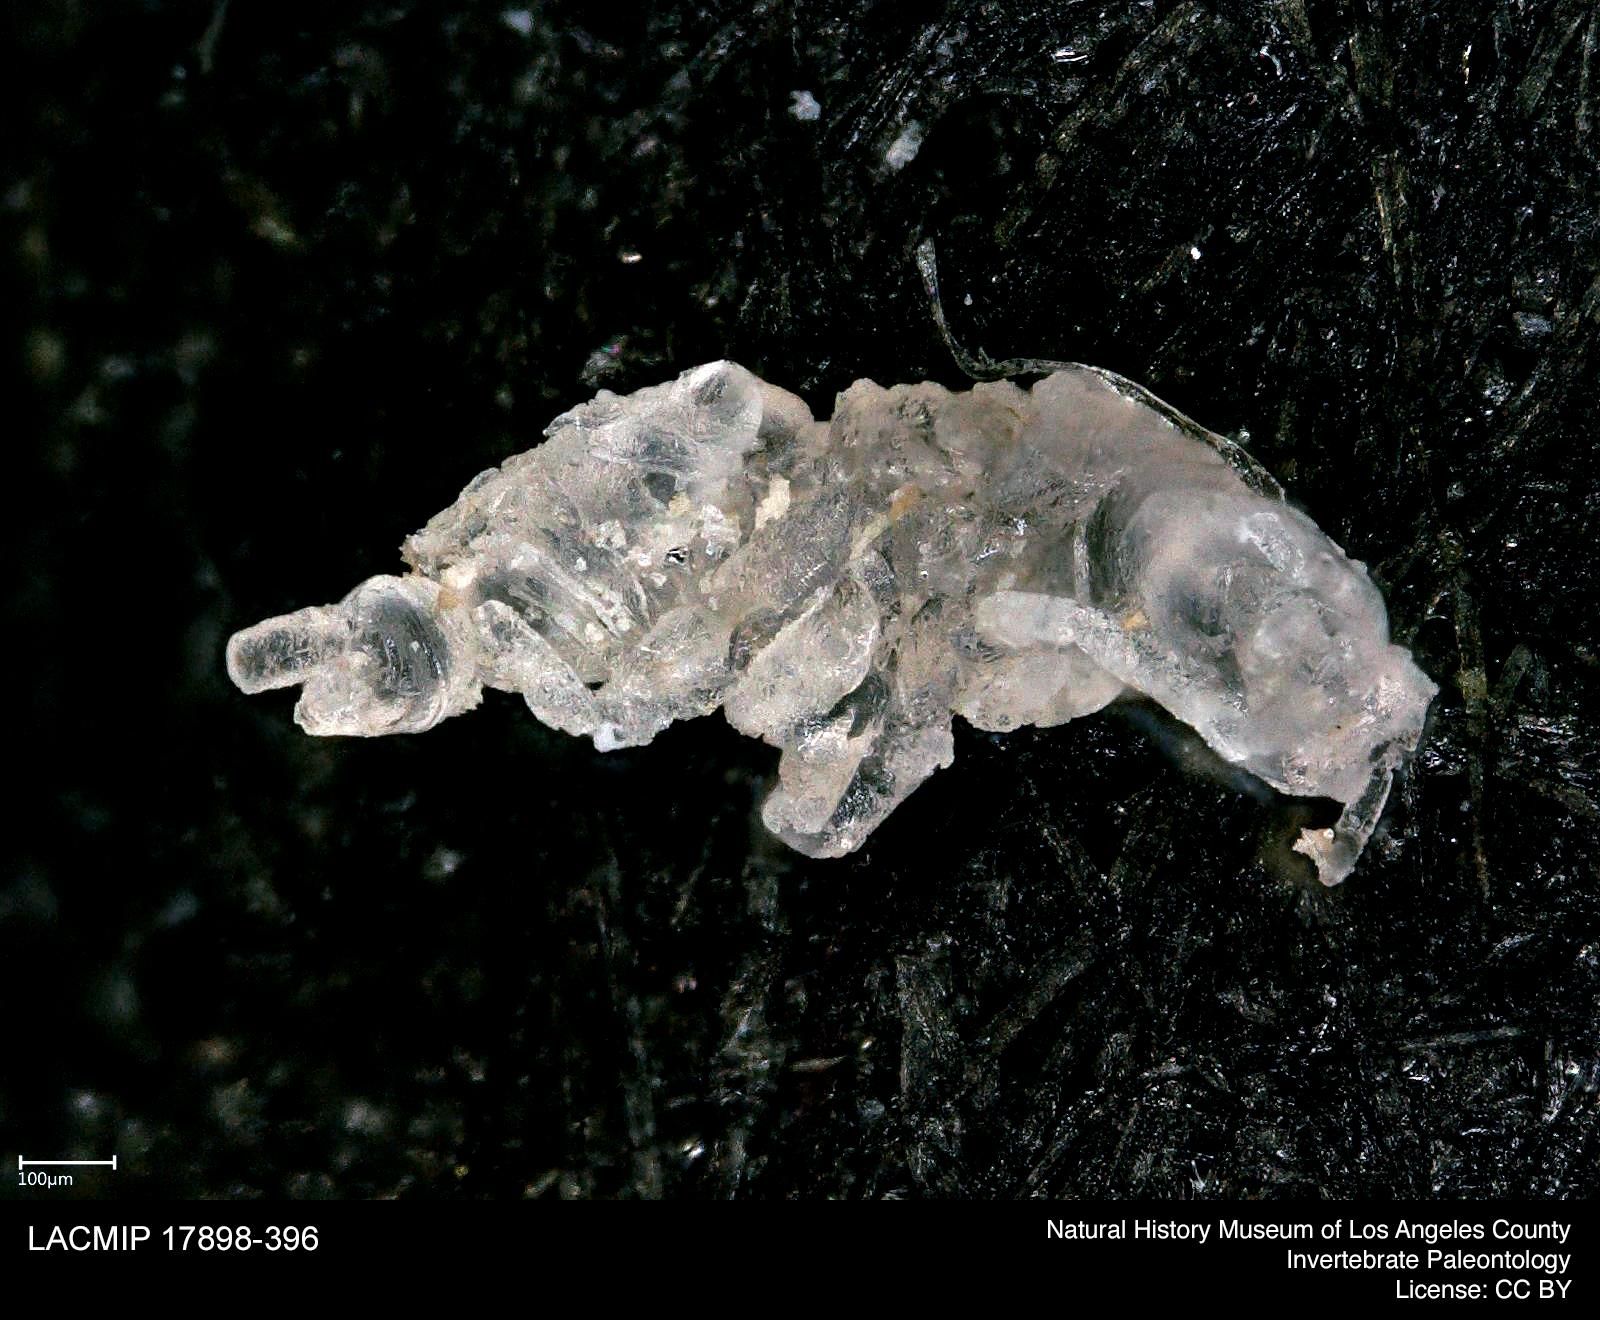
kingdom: Animalia
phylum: Arthropoda
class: Insecta
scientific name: Insecta
